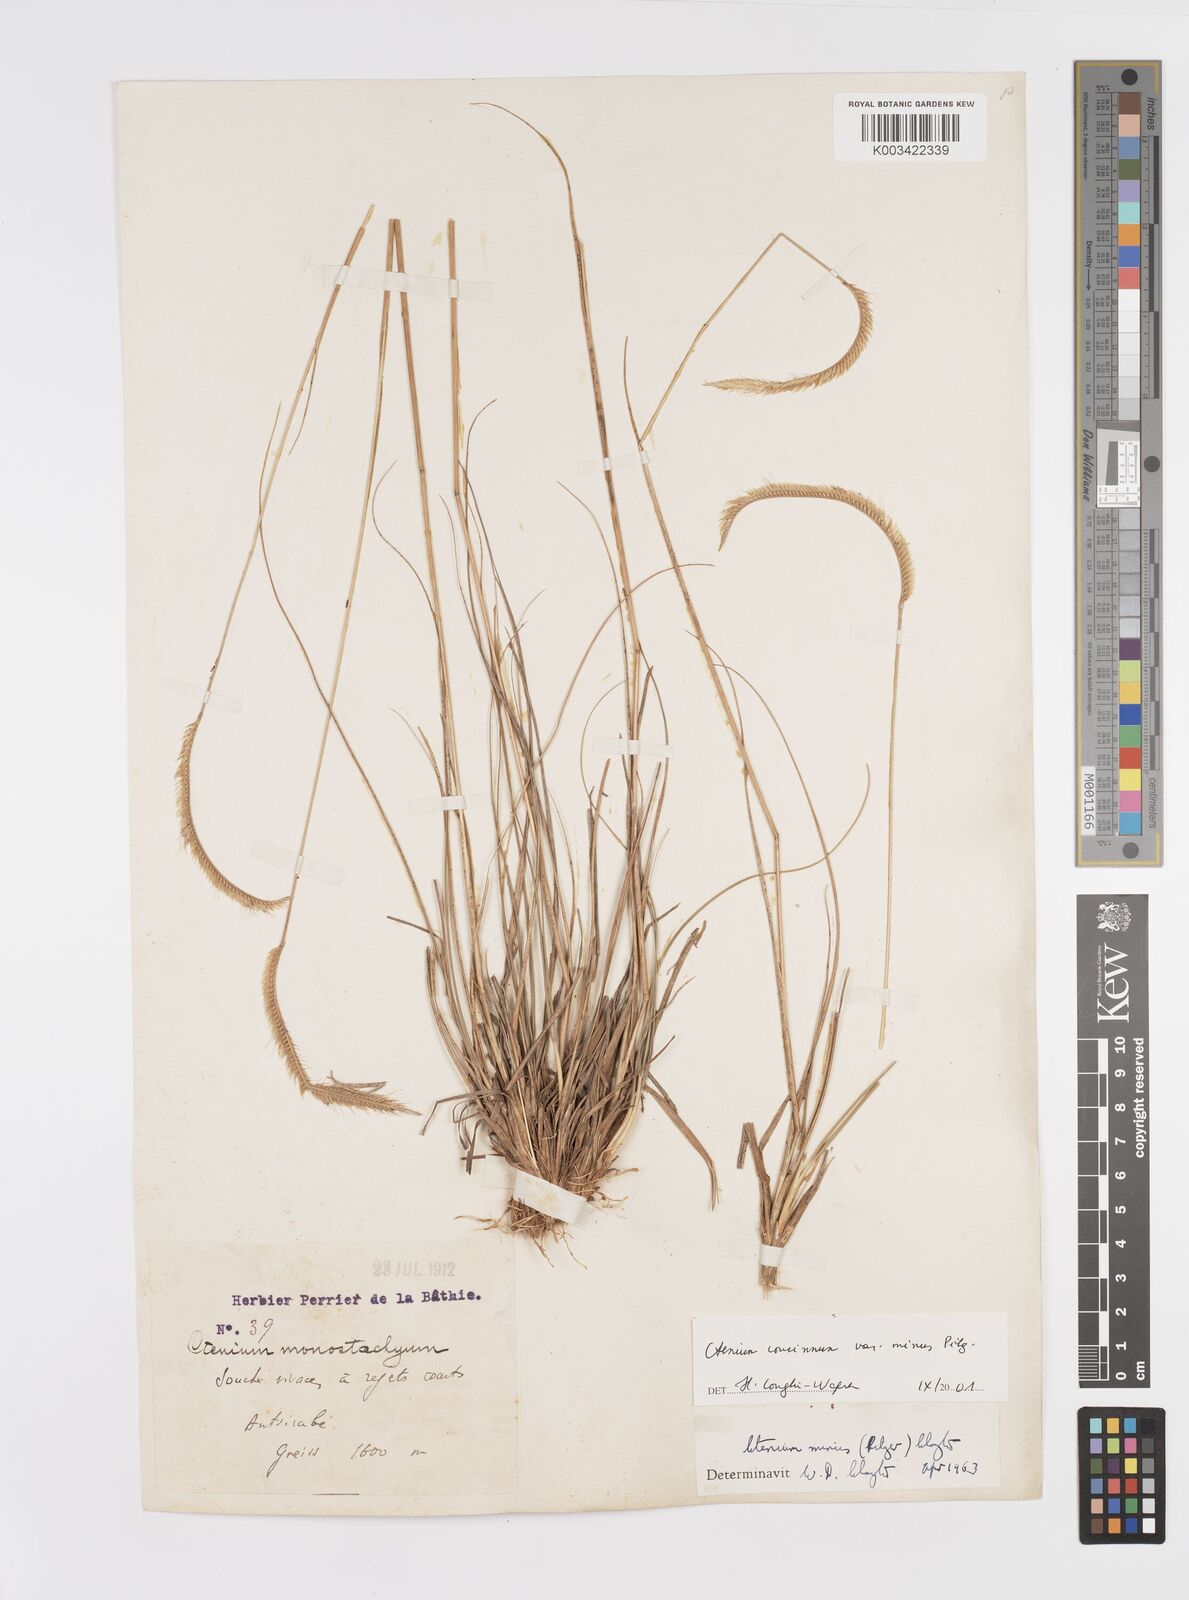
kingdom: Plantae
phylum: Tracheophyta
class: Liliopsida
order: Poales
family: Poaceae
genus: Ctenium
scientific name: Ctenium concinnum
